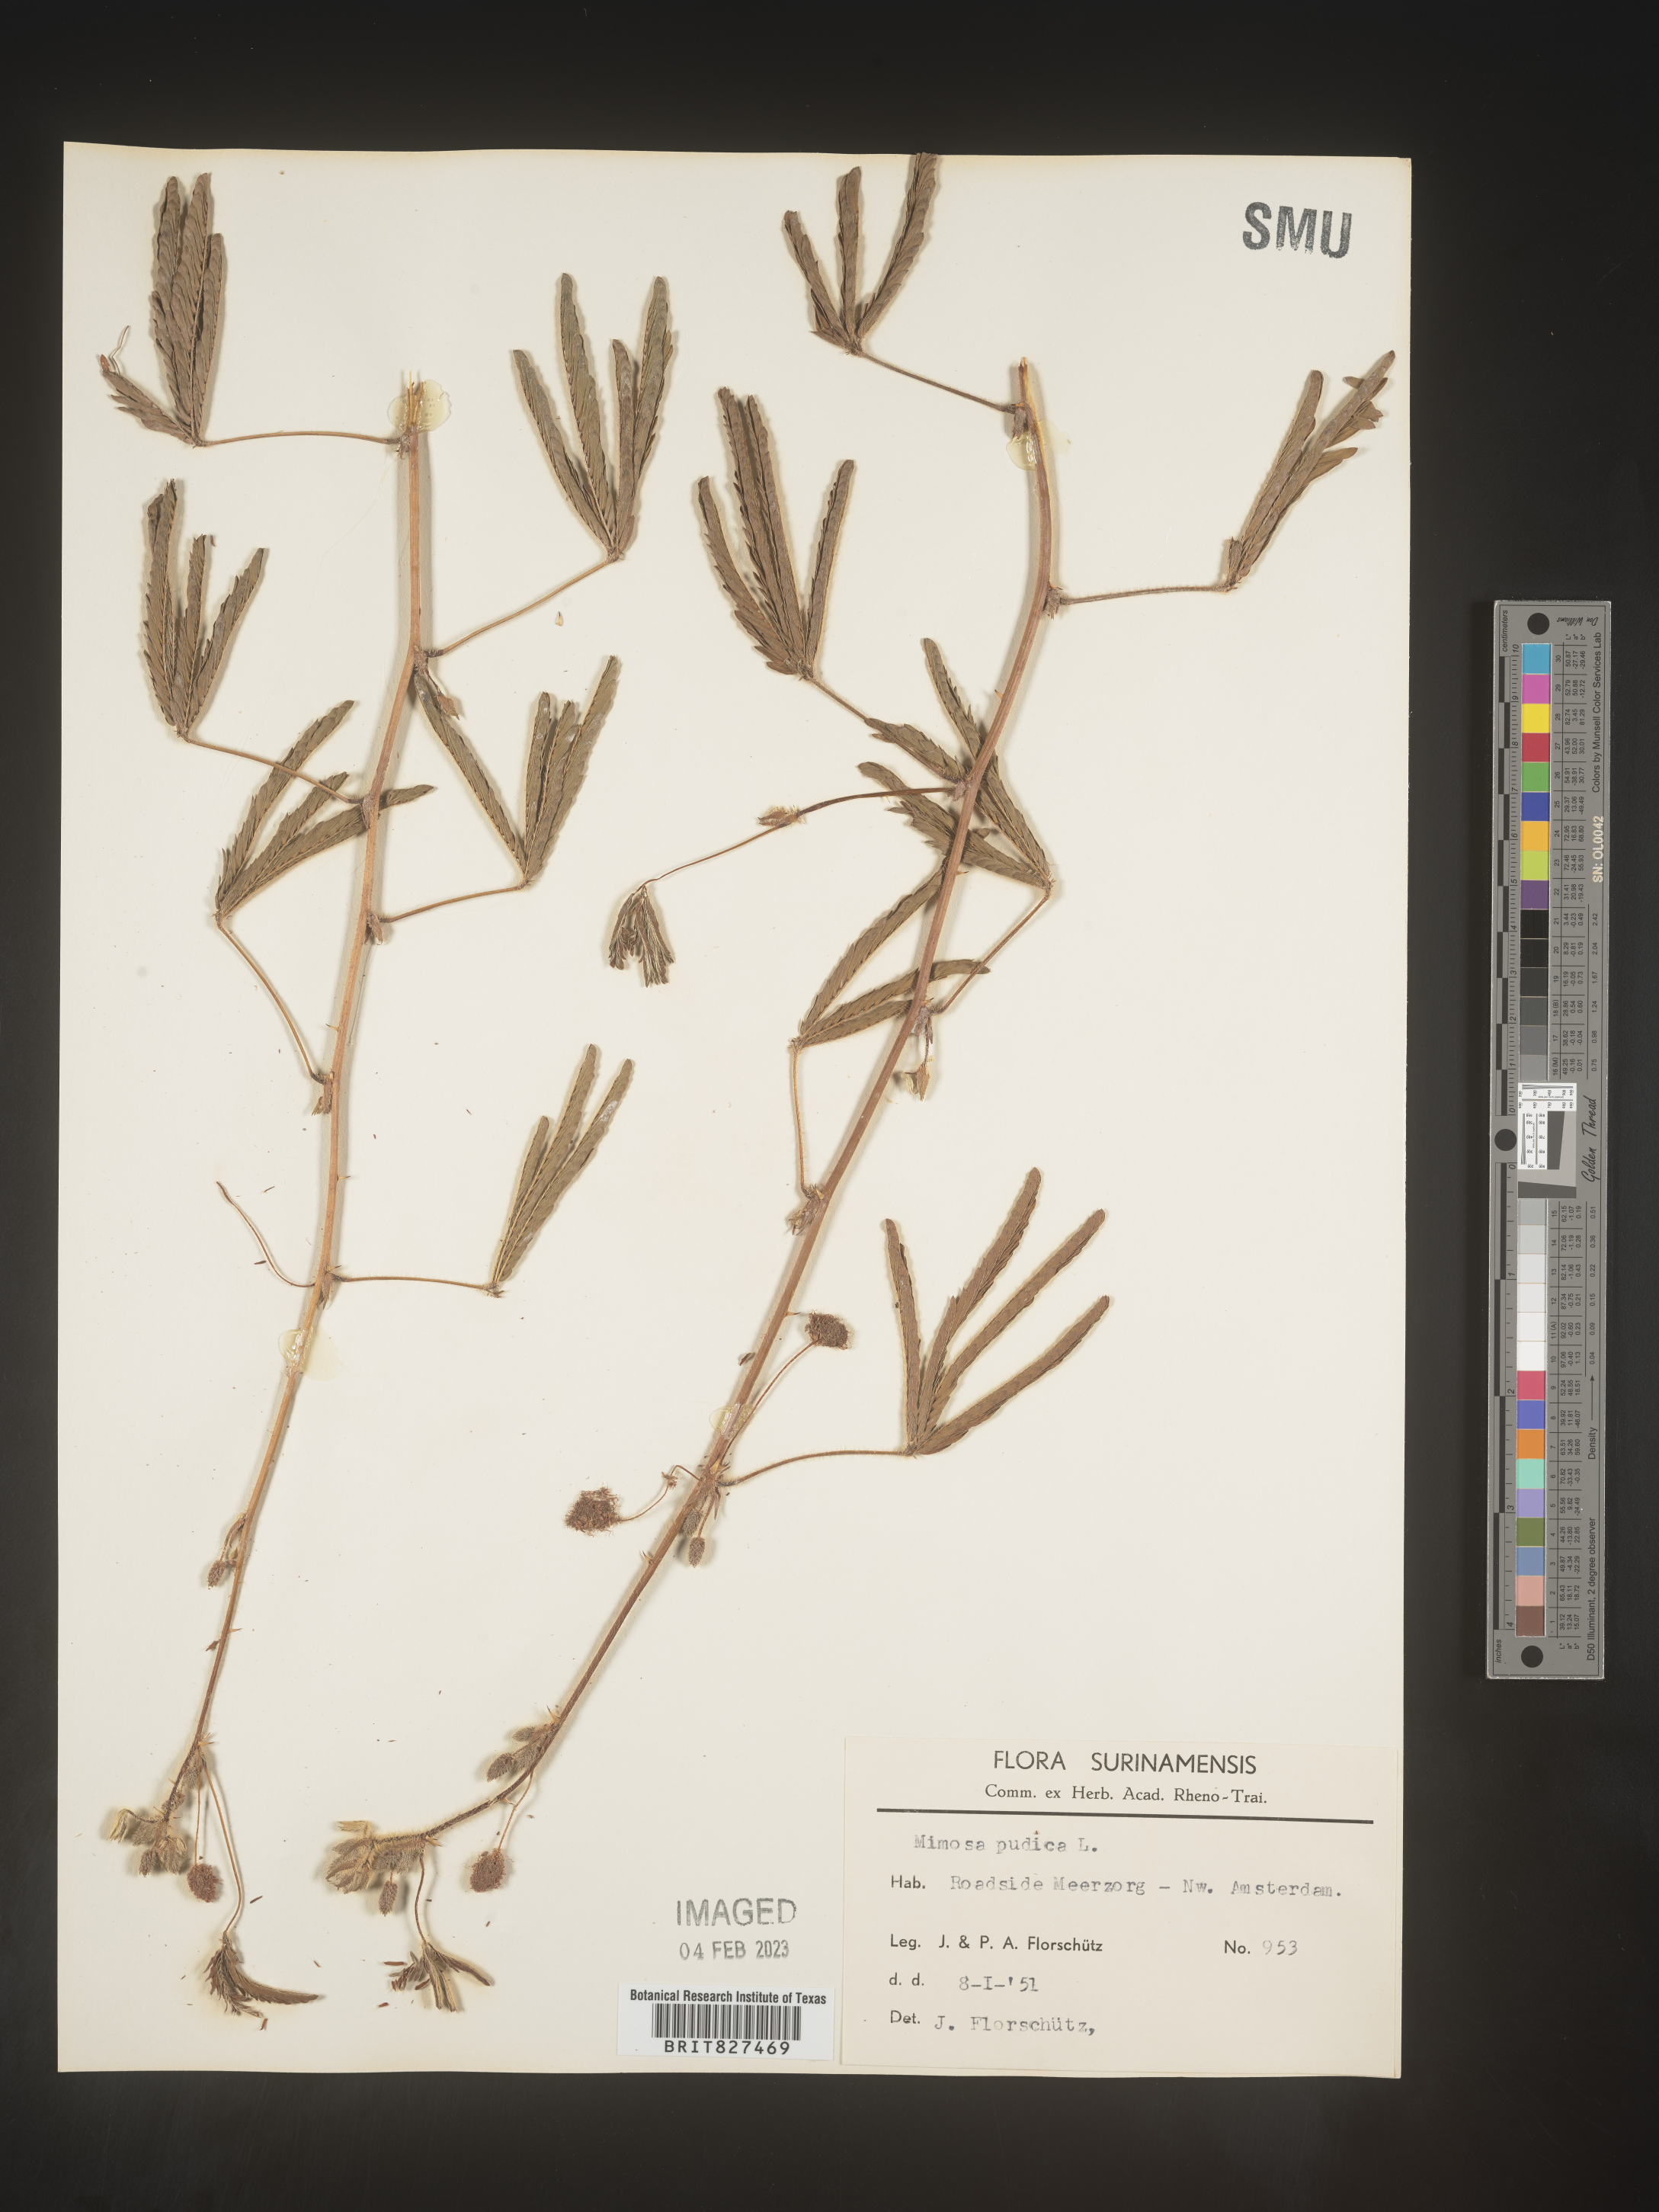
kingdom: Plantae
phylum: Tracheophyta
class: Magnoliopsida
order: Fabales
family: Fabaceae
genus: Mimosa
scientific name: Mimosa
